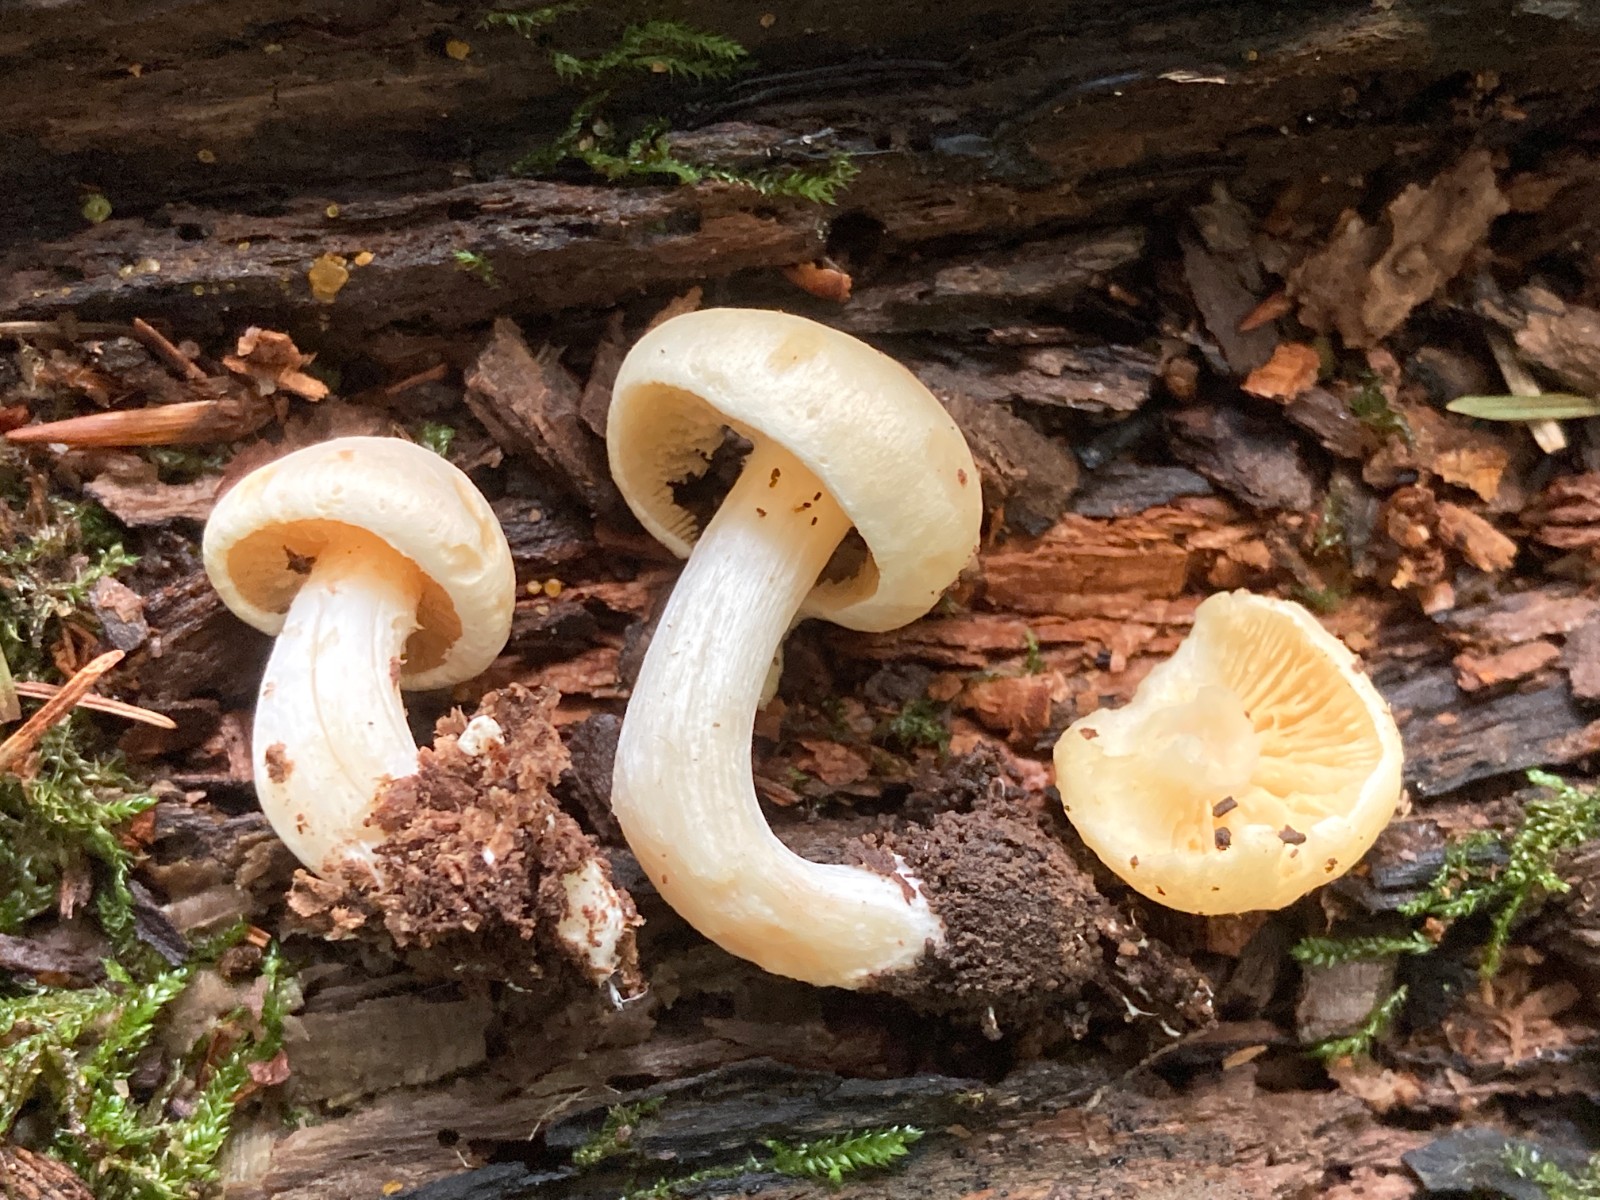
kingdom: Fungi
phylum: Basidiomycota
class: Agaricomycetes
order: Agaricales
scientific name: Agaricales
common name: champignonordenen
